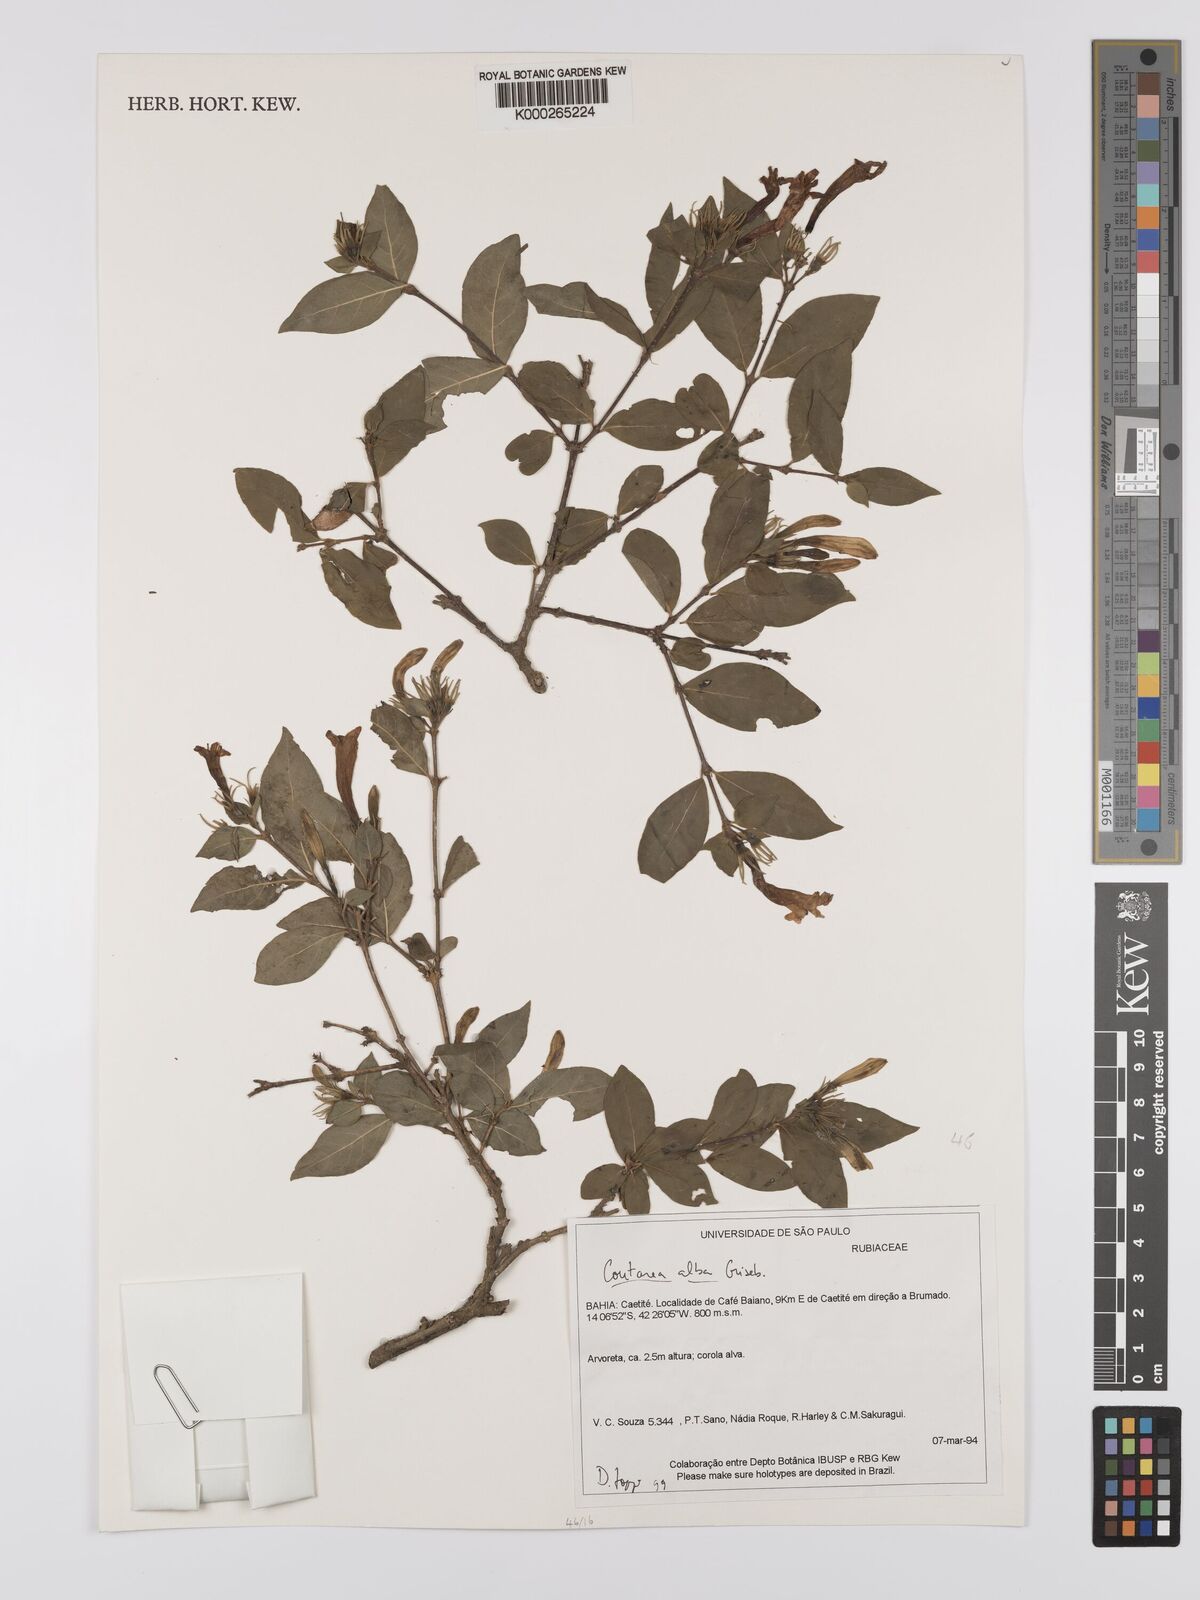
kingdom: Plantae
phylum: Tracheophyta
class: Magnoliopsida
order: Gentianales
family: Rubiaceae
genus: Coutarea
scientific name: Coutarea alba
